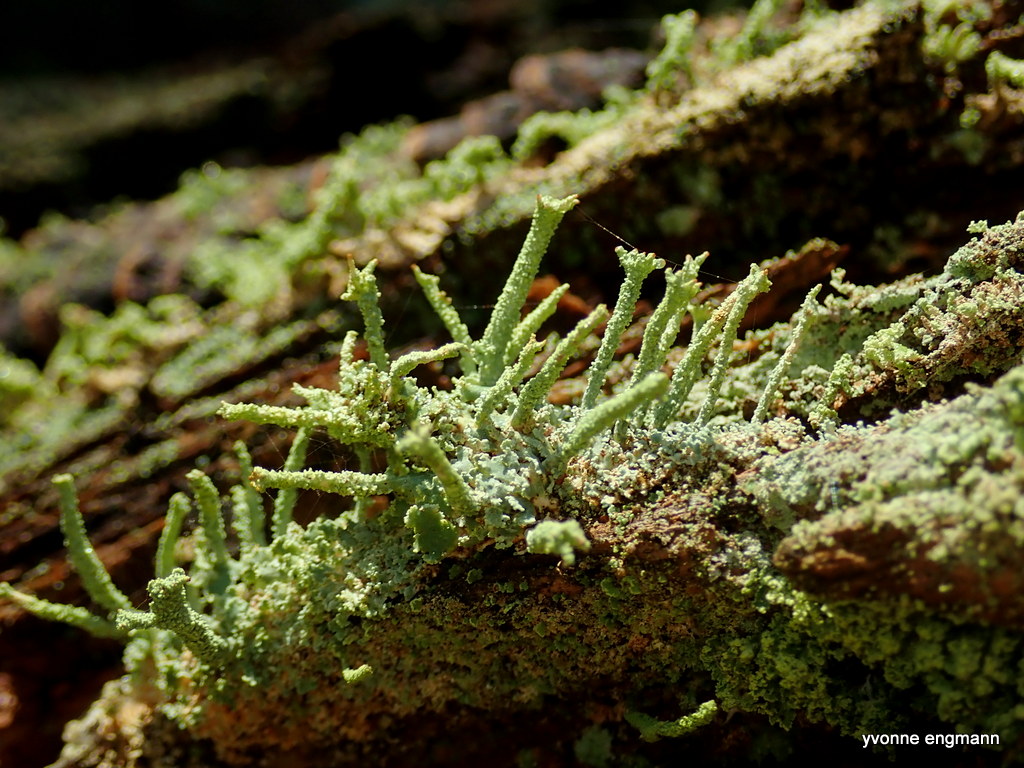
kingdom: Fungi
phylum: Ascomycota
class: Lecanoromycetes
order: Lecanorales
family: Cladoniaceae
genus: Cladonia
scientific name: Cladonia polydactyla
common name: vifte-bægerlav
